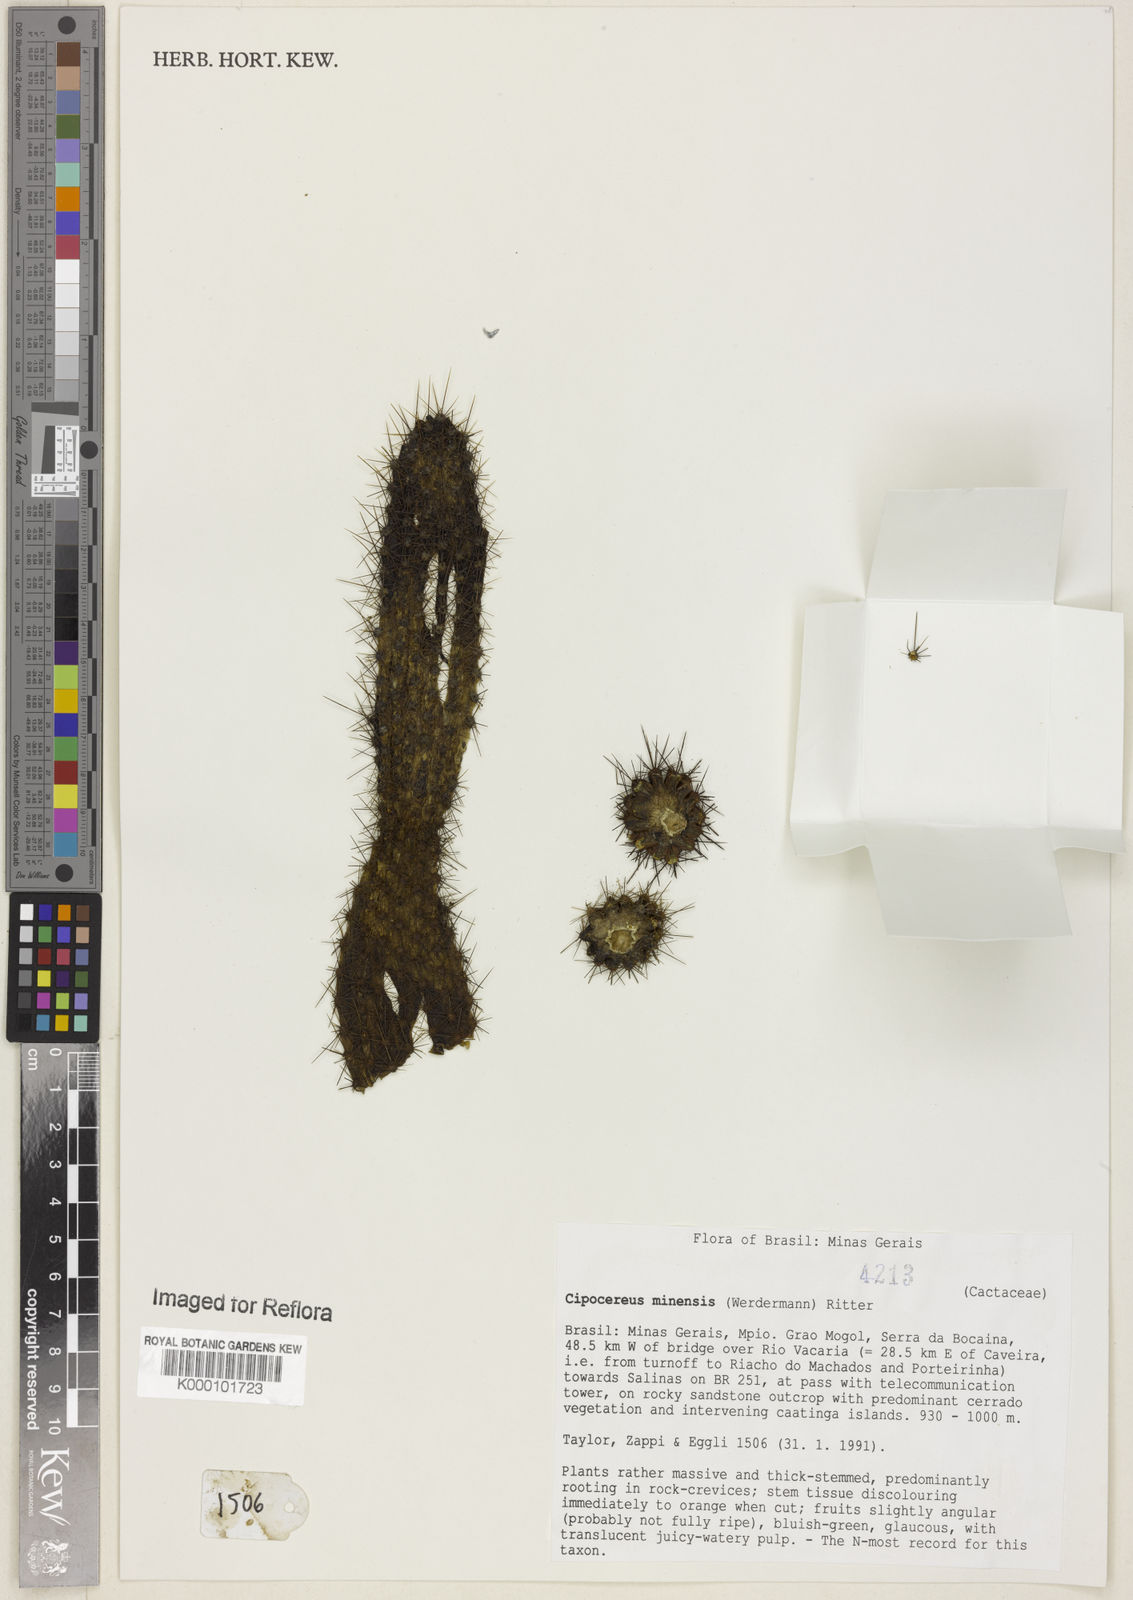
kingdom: Plantae
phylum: Tracheophyta
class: Magnoliopsida
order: Caryophyllales
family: Cactaceae
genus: Cipocereus
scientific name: Cipocereus minensis
